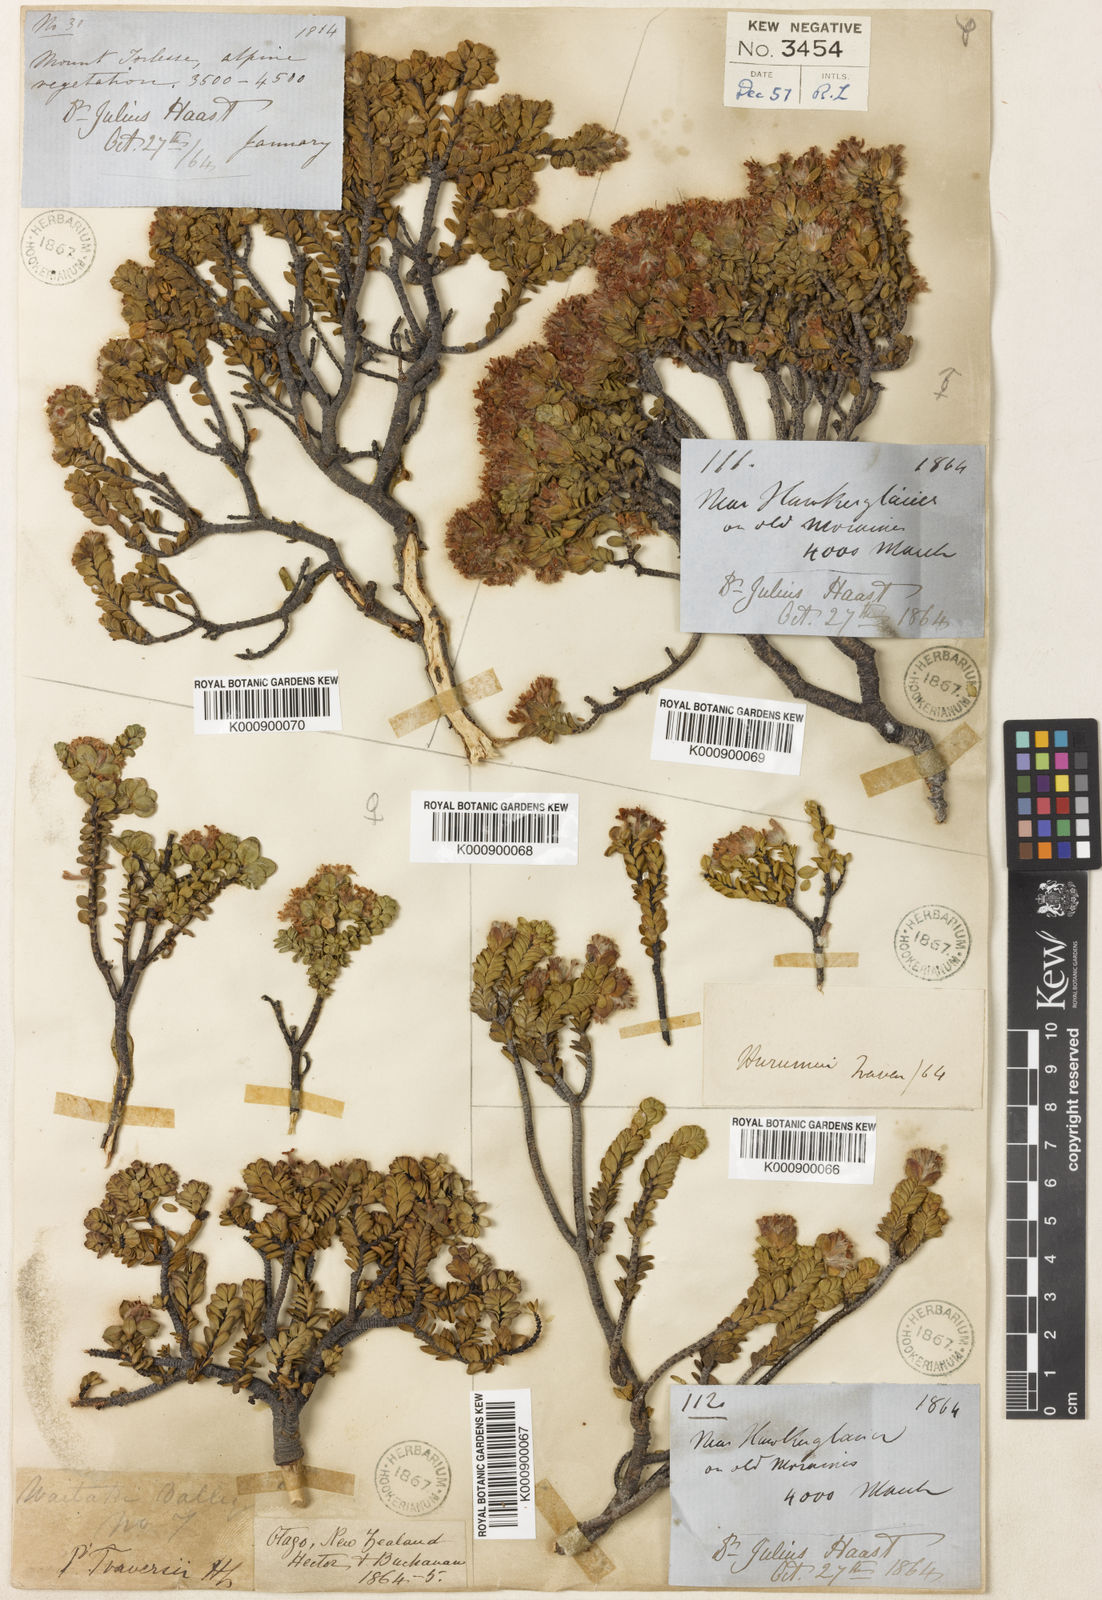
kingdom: Plantae
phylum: Tracheophyta
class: Magnoliopsida
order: Malvales
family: Thymelaeaceae
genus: Pimelea
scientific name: Pimelea traversii
